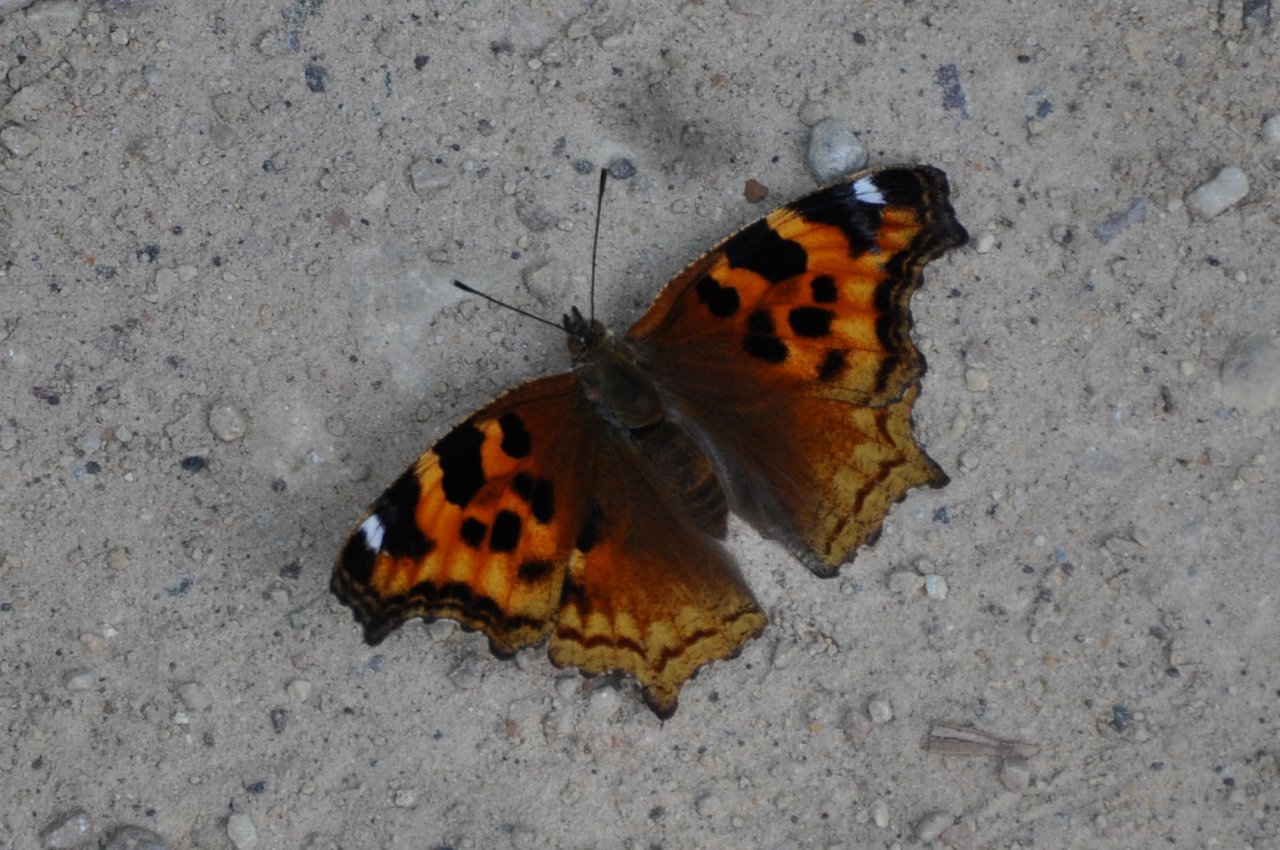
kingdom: Animalia
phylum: Arthropoda
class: Insecta
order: Lepidoptera
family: Nymphalidae
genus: Polygonia
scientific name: Polygonia vaualbum
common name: Compton Tortoiseshell
